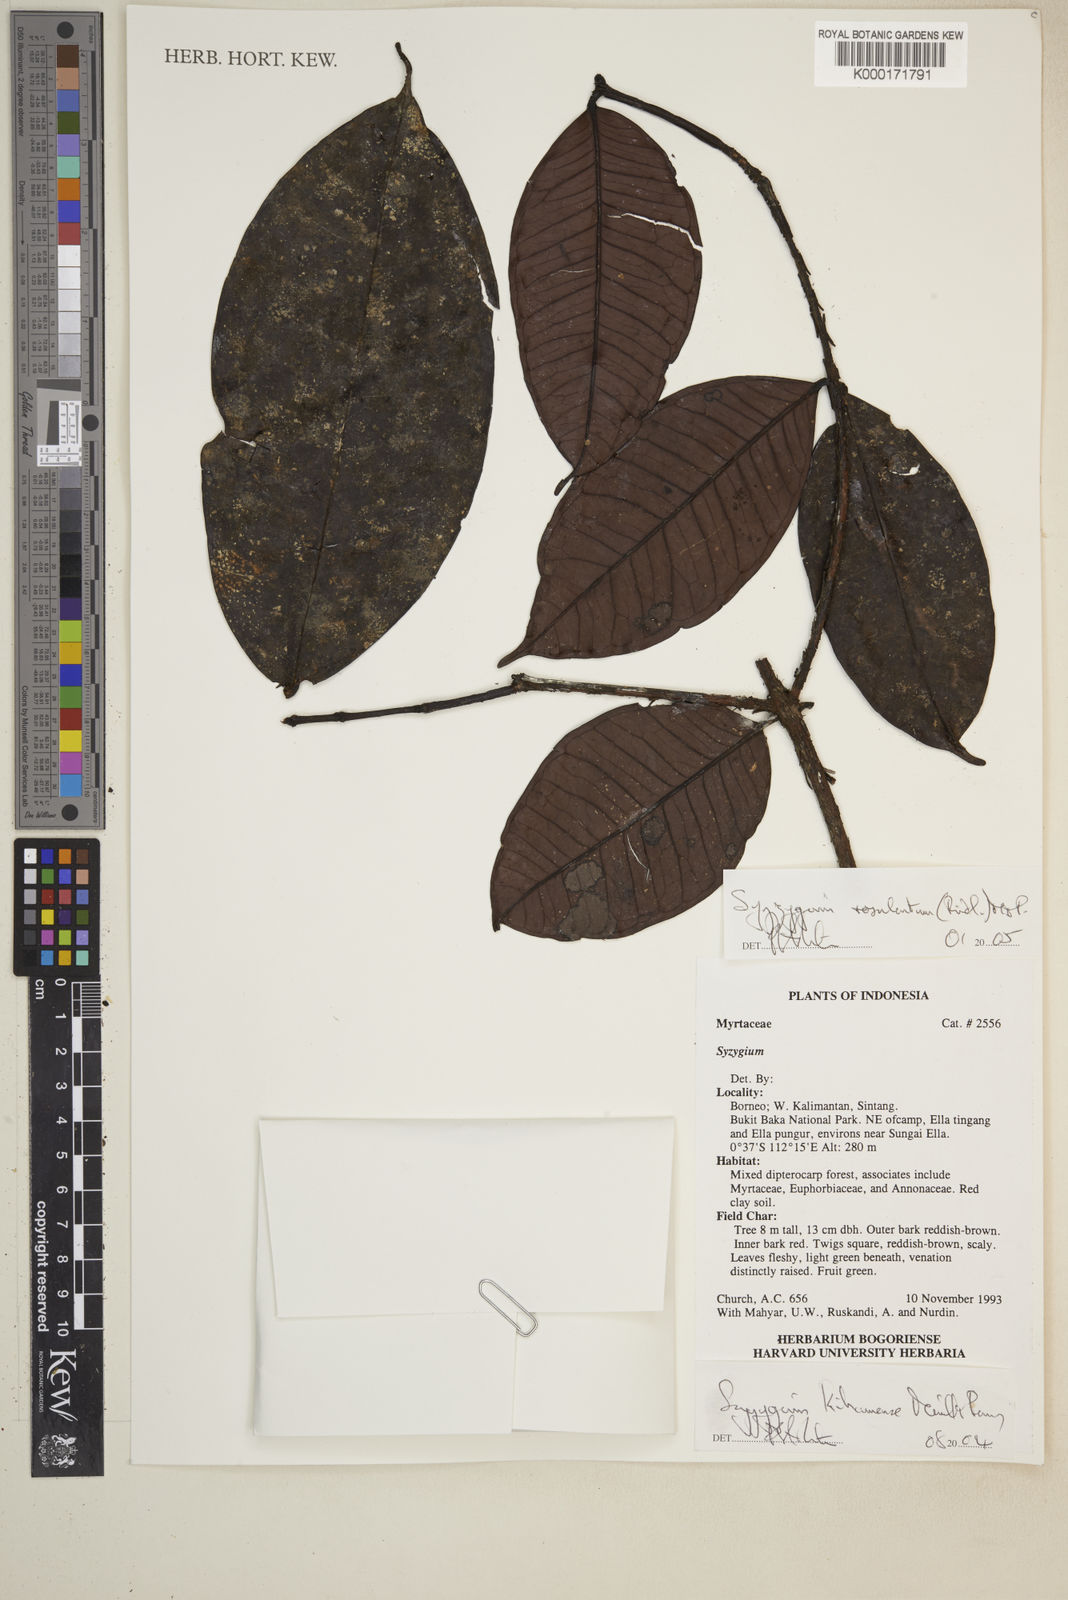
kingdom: Plantae
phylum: Tracheophyta
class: Magnoliopsida
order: Myrtales
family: Myrtaceae
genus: Syzygium
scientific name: Syzygium oblanceolatum
